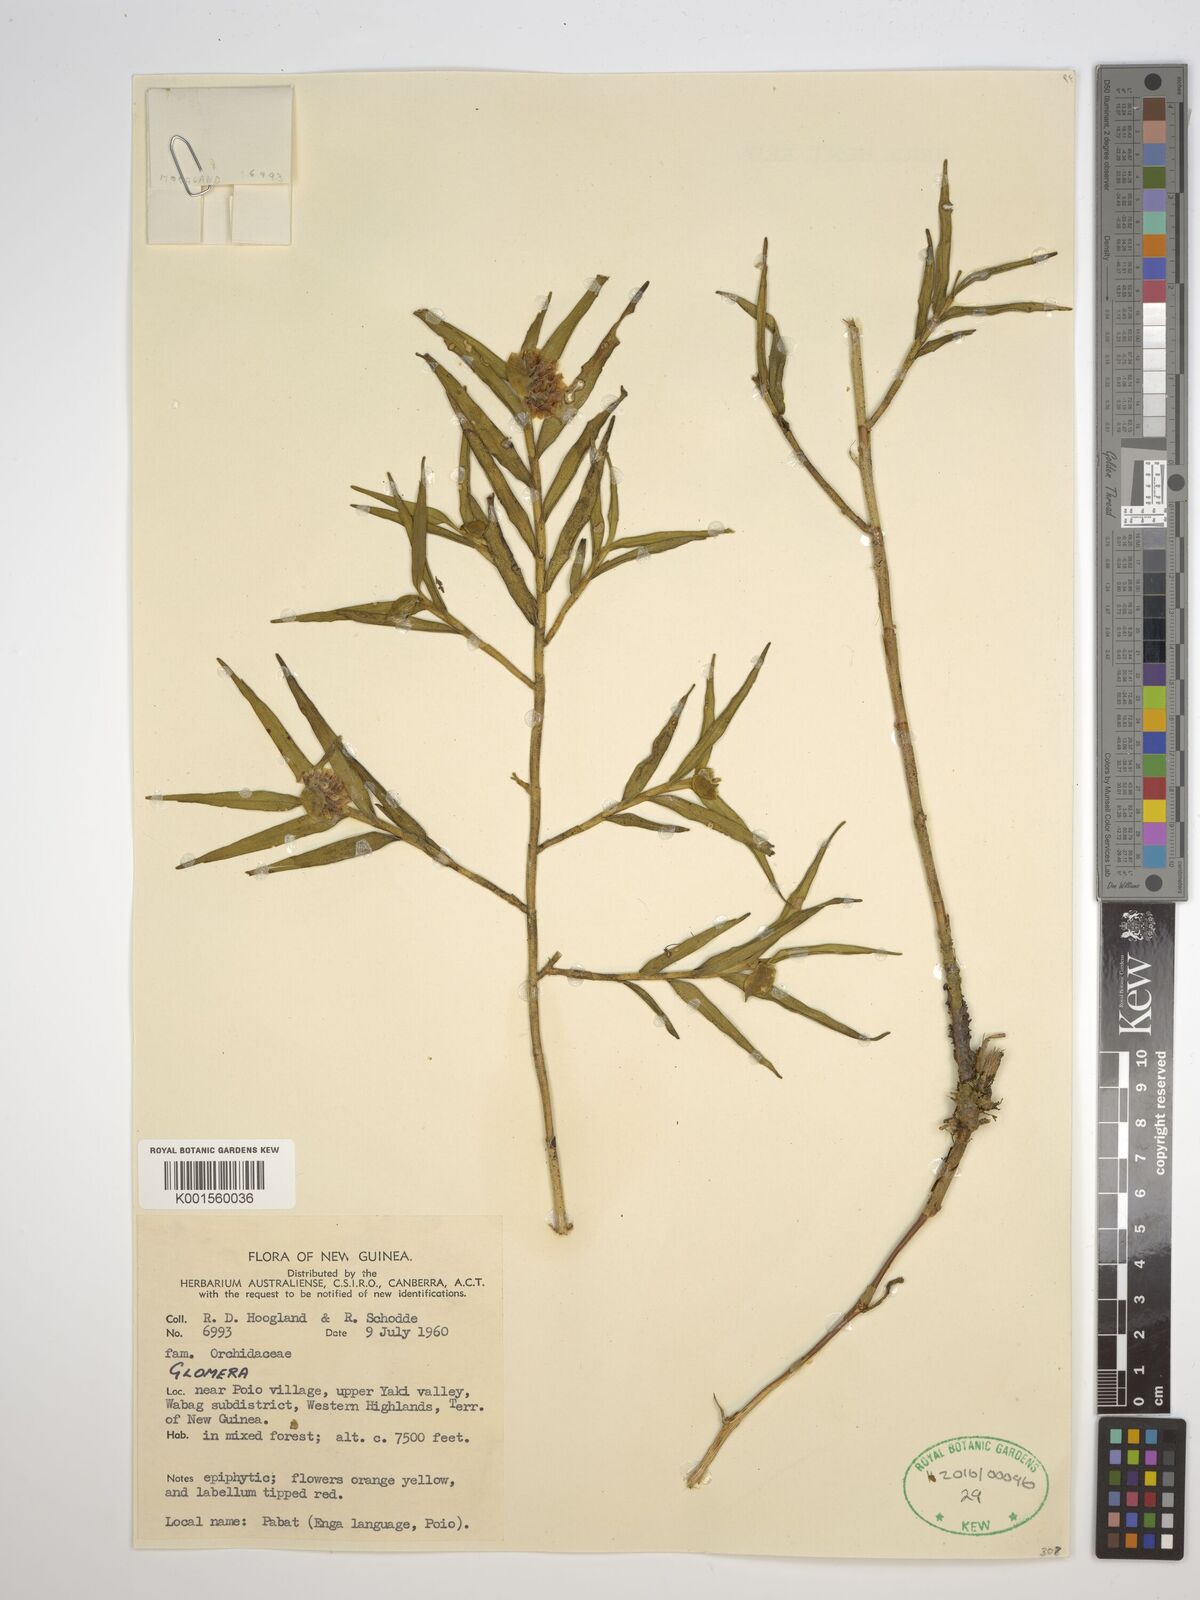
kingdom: Plantae
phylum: Tracheophyta
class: Liliopsida
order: Asparagales
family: Orchidaceae
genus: Glomera
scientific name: Glomera
